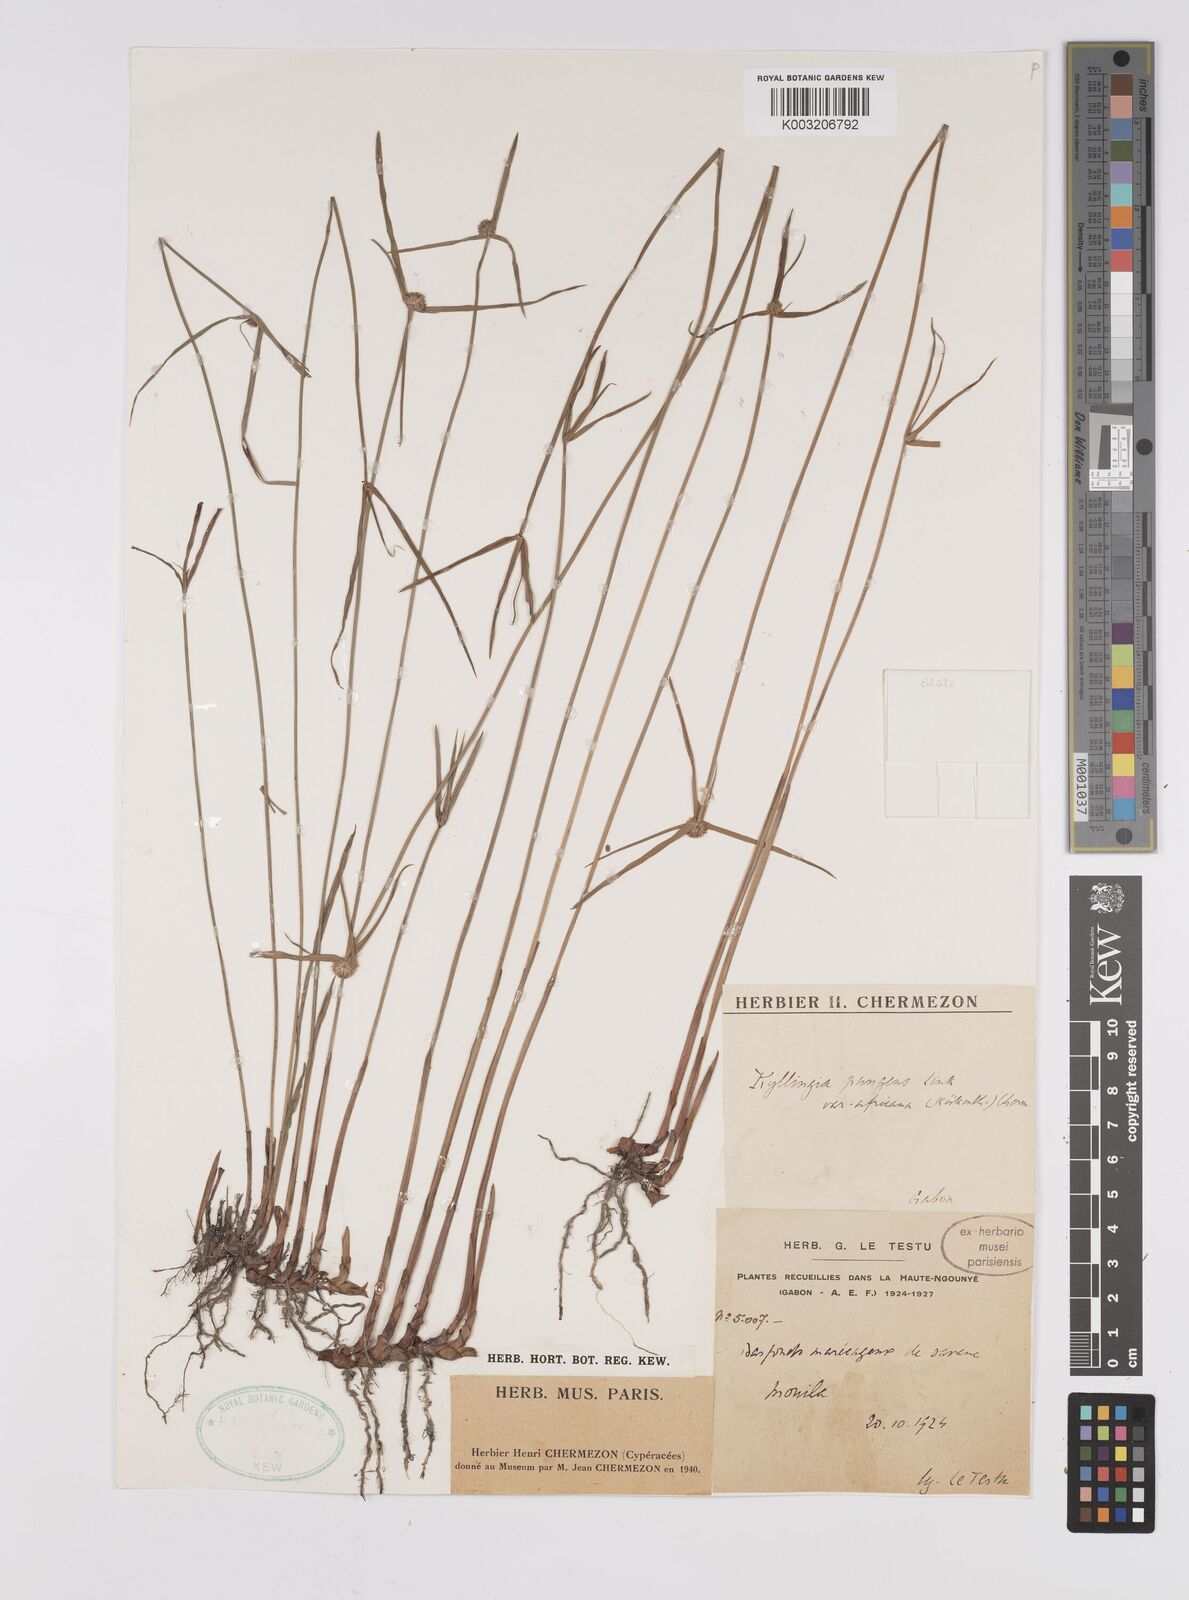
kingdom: Plantae
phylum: Tracheophyta
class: Liliopsida
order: Poales
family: Cyperaceae
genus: Cyperus
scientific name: Cyperus
